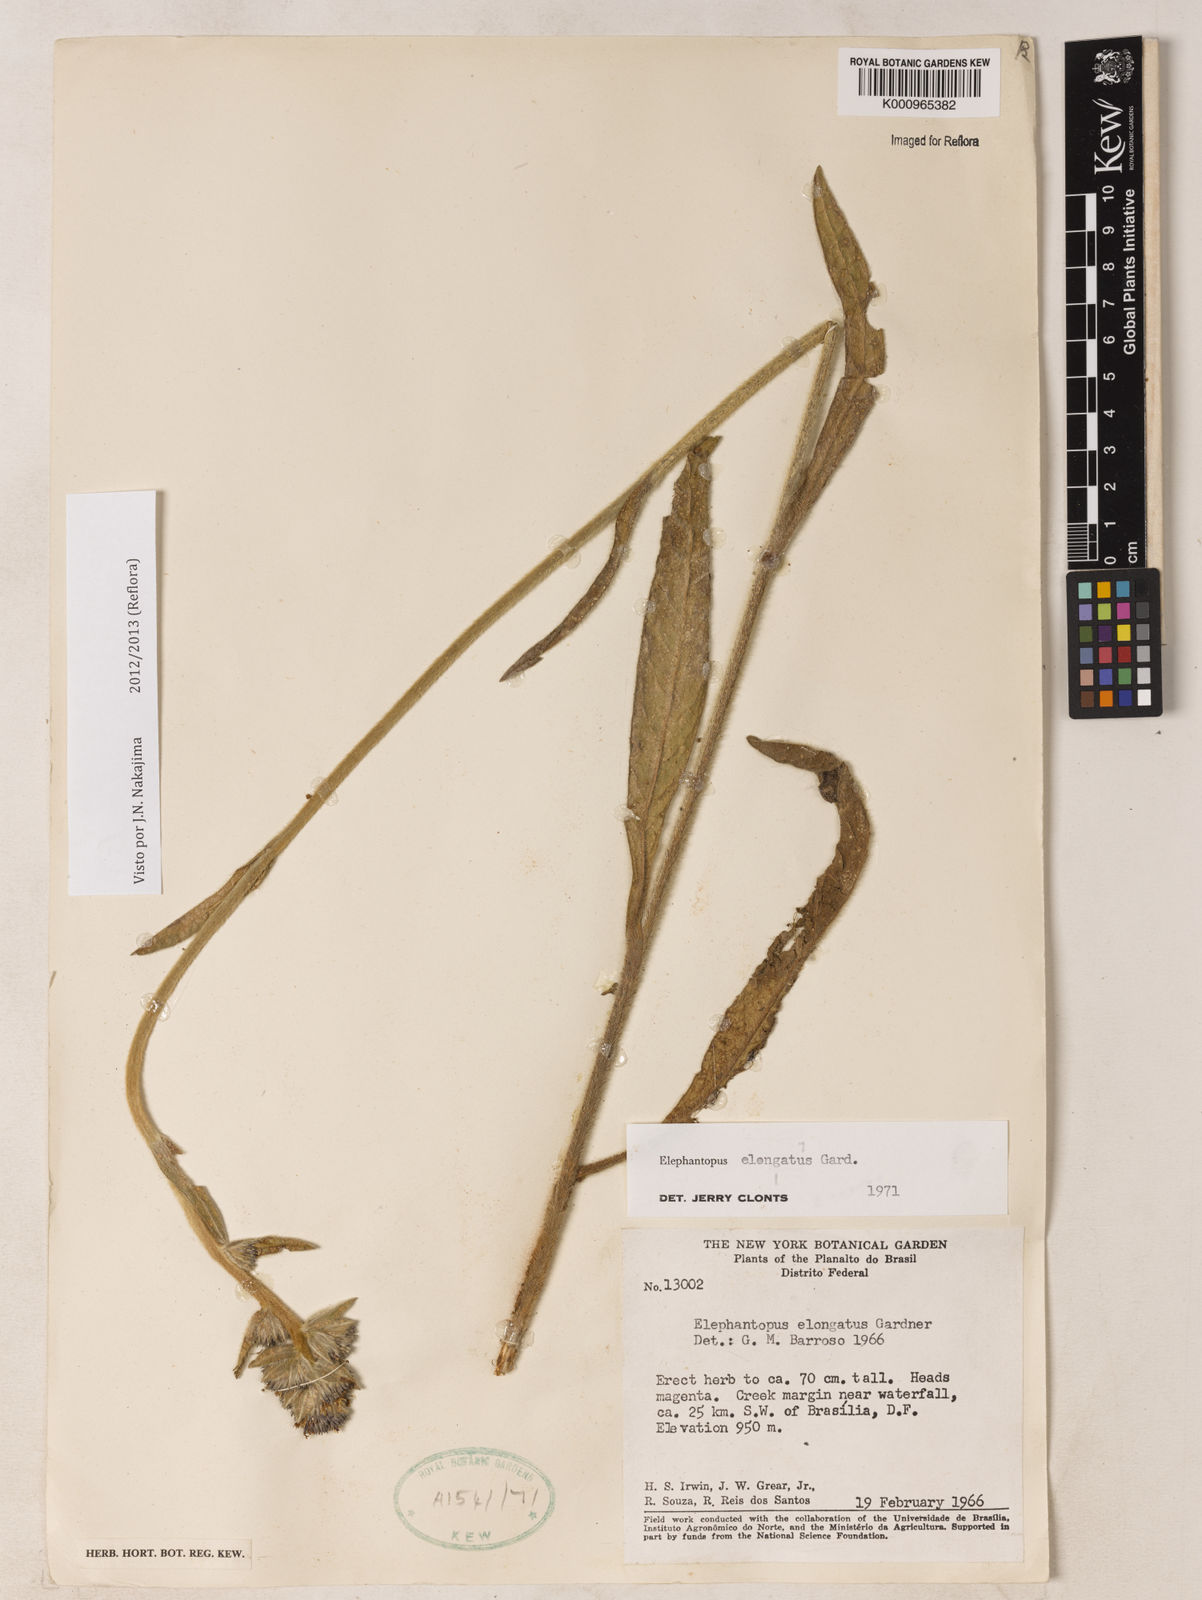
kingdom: Plantae
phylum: Tracheophyta
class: Magnoliopsida
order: Asterales
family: Asteraceae
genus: Elephantopus
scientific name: Elephantopus elongatus
